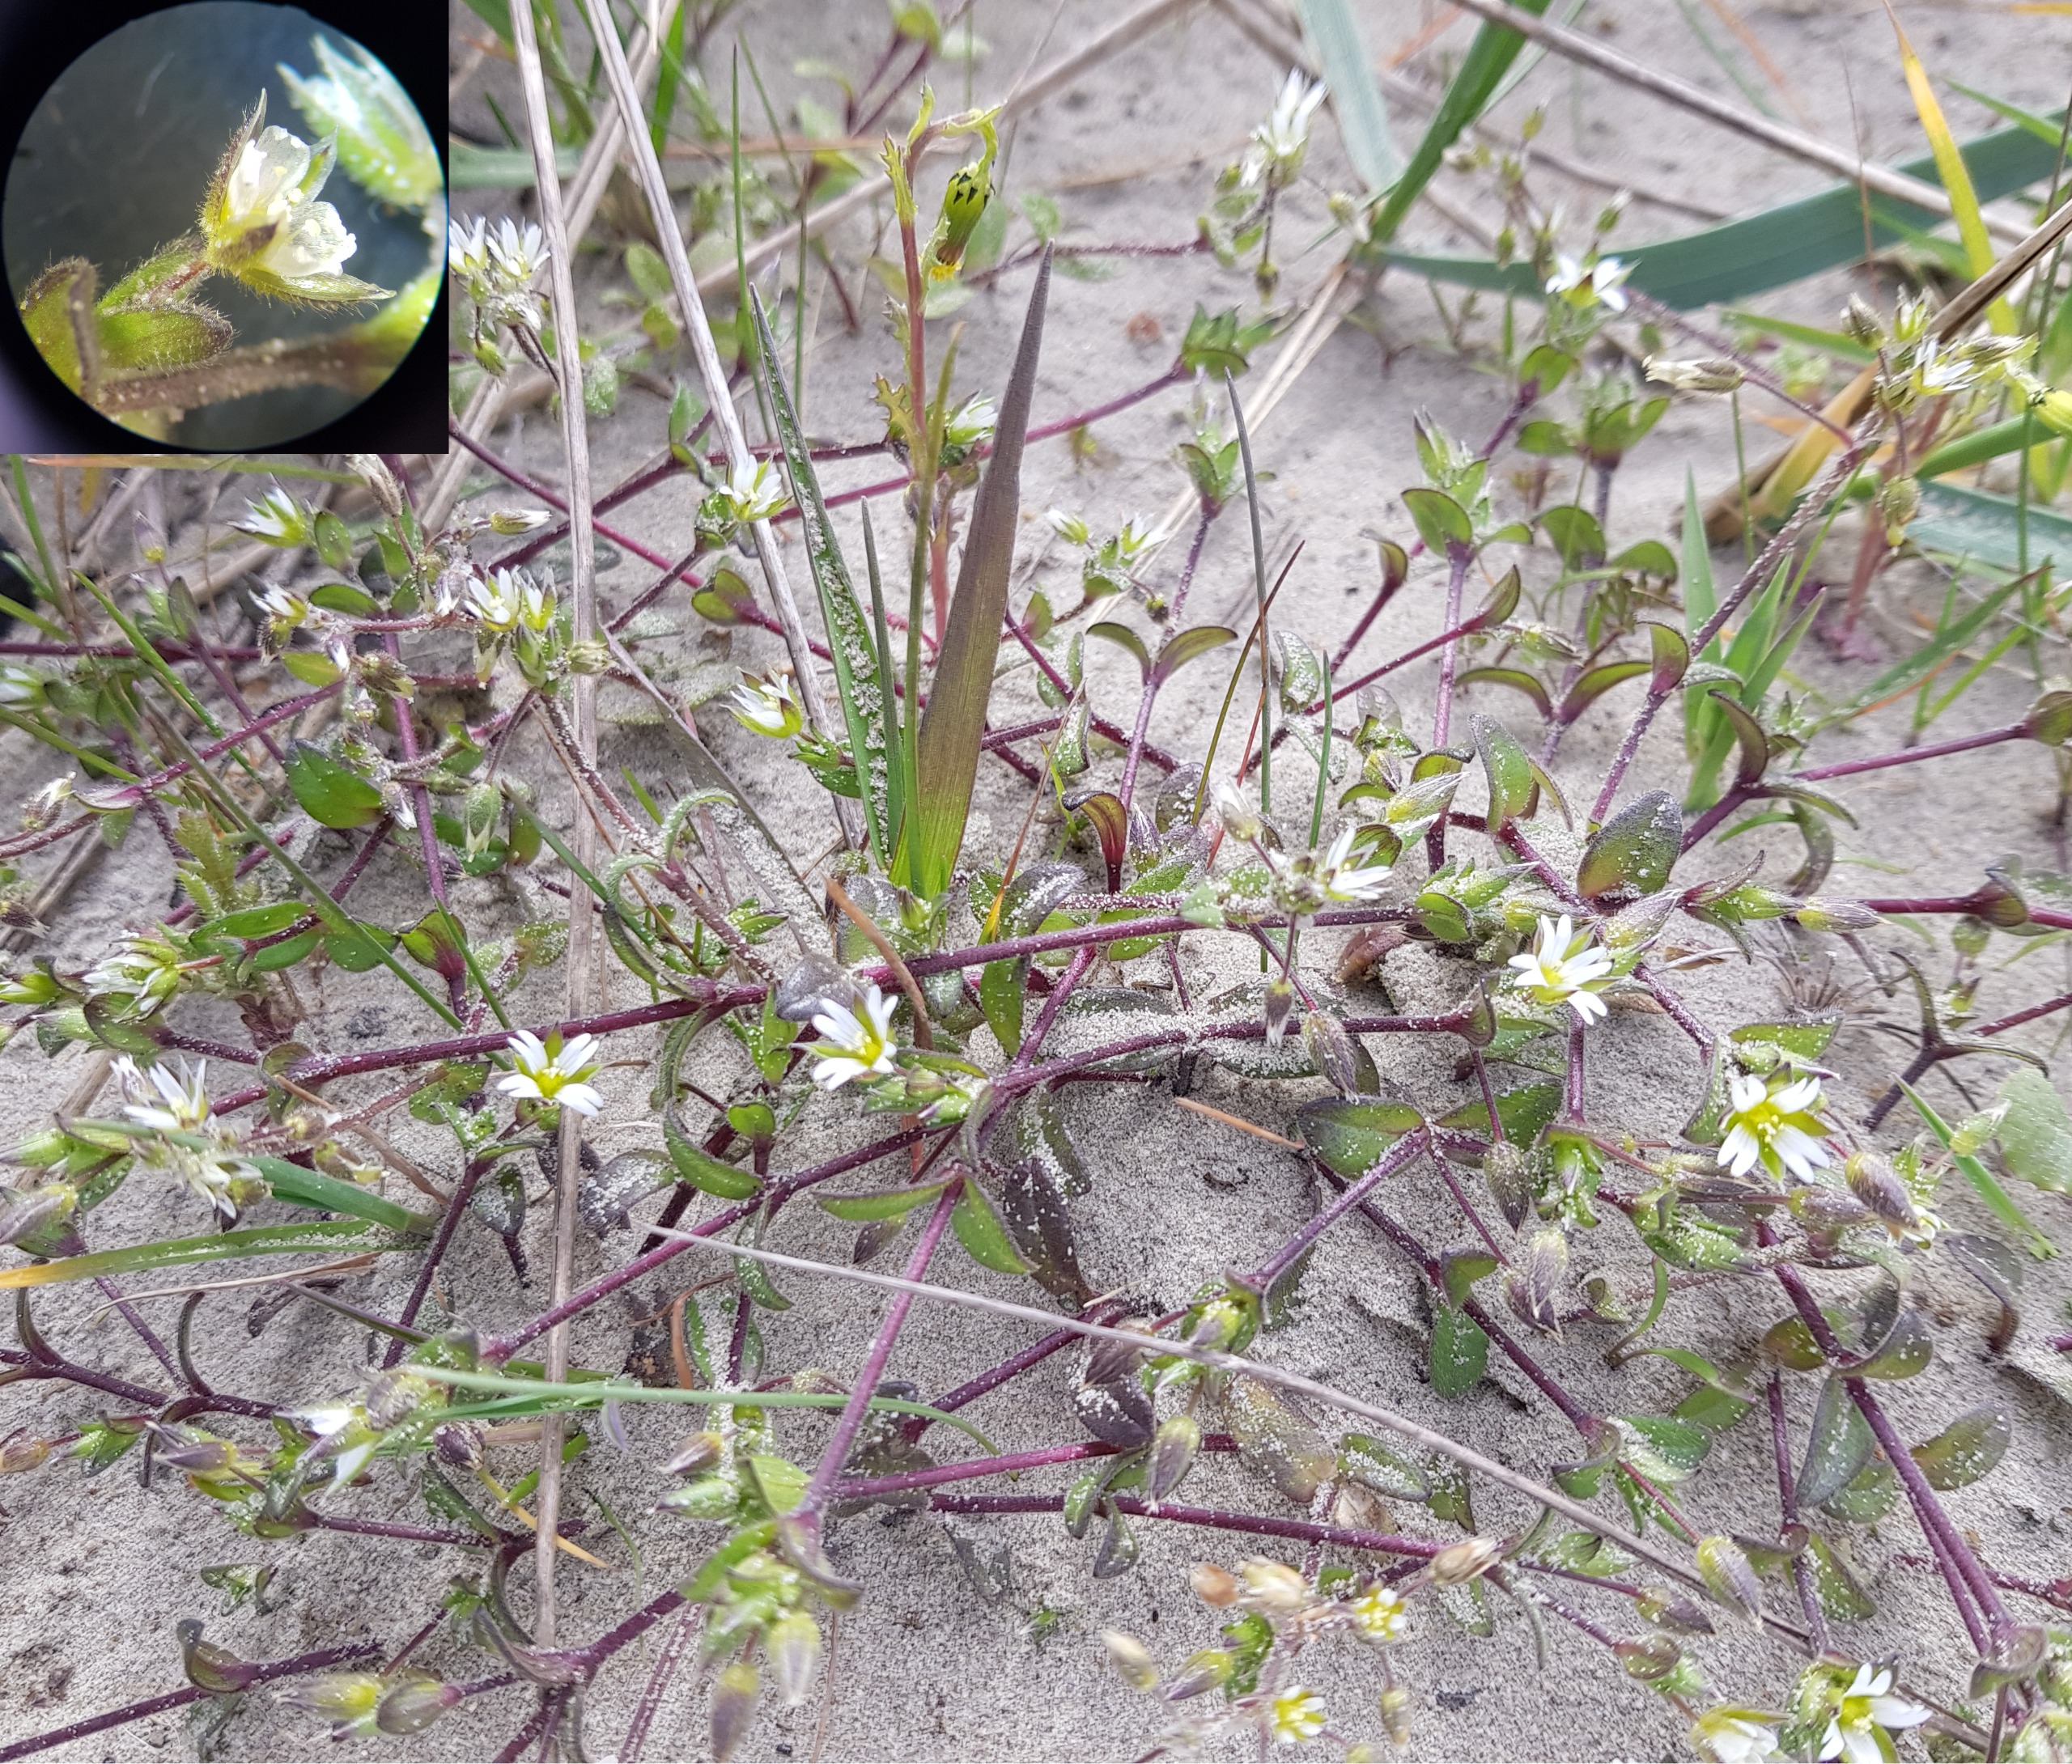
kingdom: Plantae
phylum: Tracheophyta
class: Magnoliopsida
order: Caryophyllales
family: Caryophyllaceae
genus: Cerastium
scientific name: Cerastium diffusum
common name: Firehannet hønsetarm
